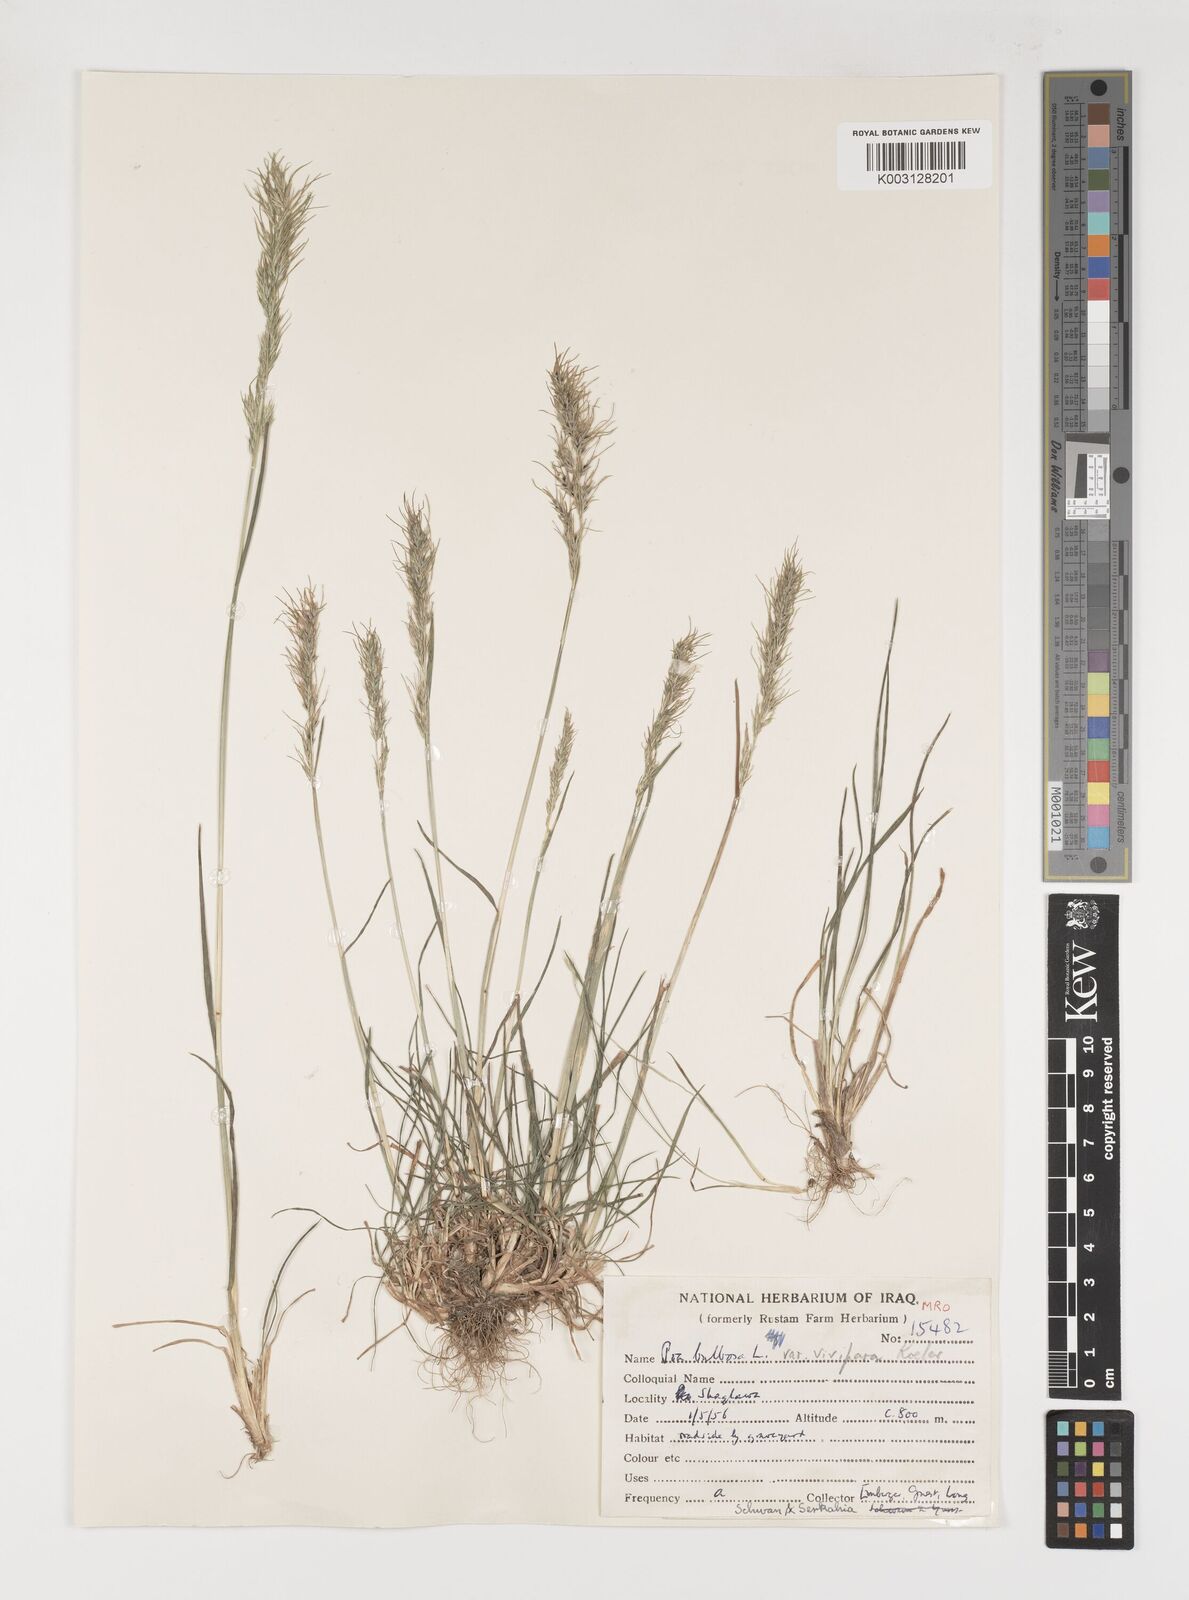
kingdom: Plantae
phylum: Tracheophyta
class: Liliopsida
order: Poales
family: Poaceae
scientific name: Poaceae
